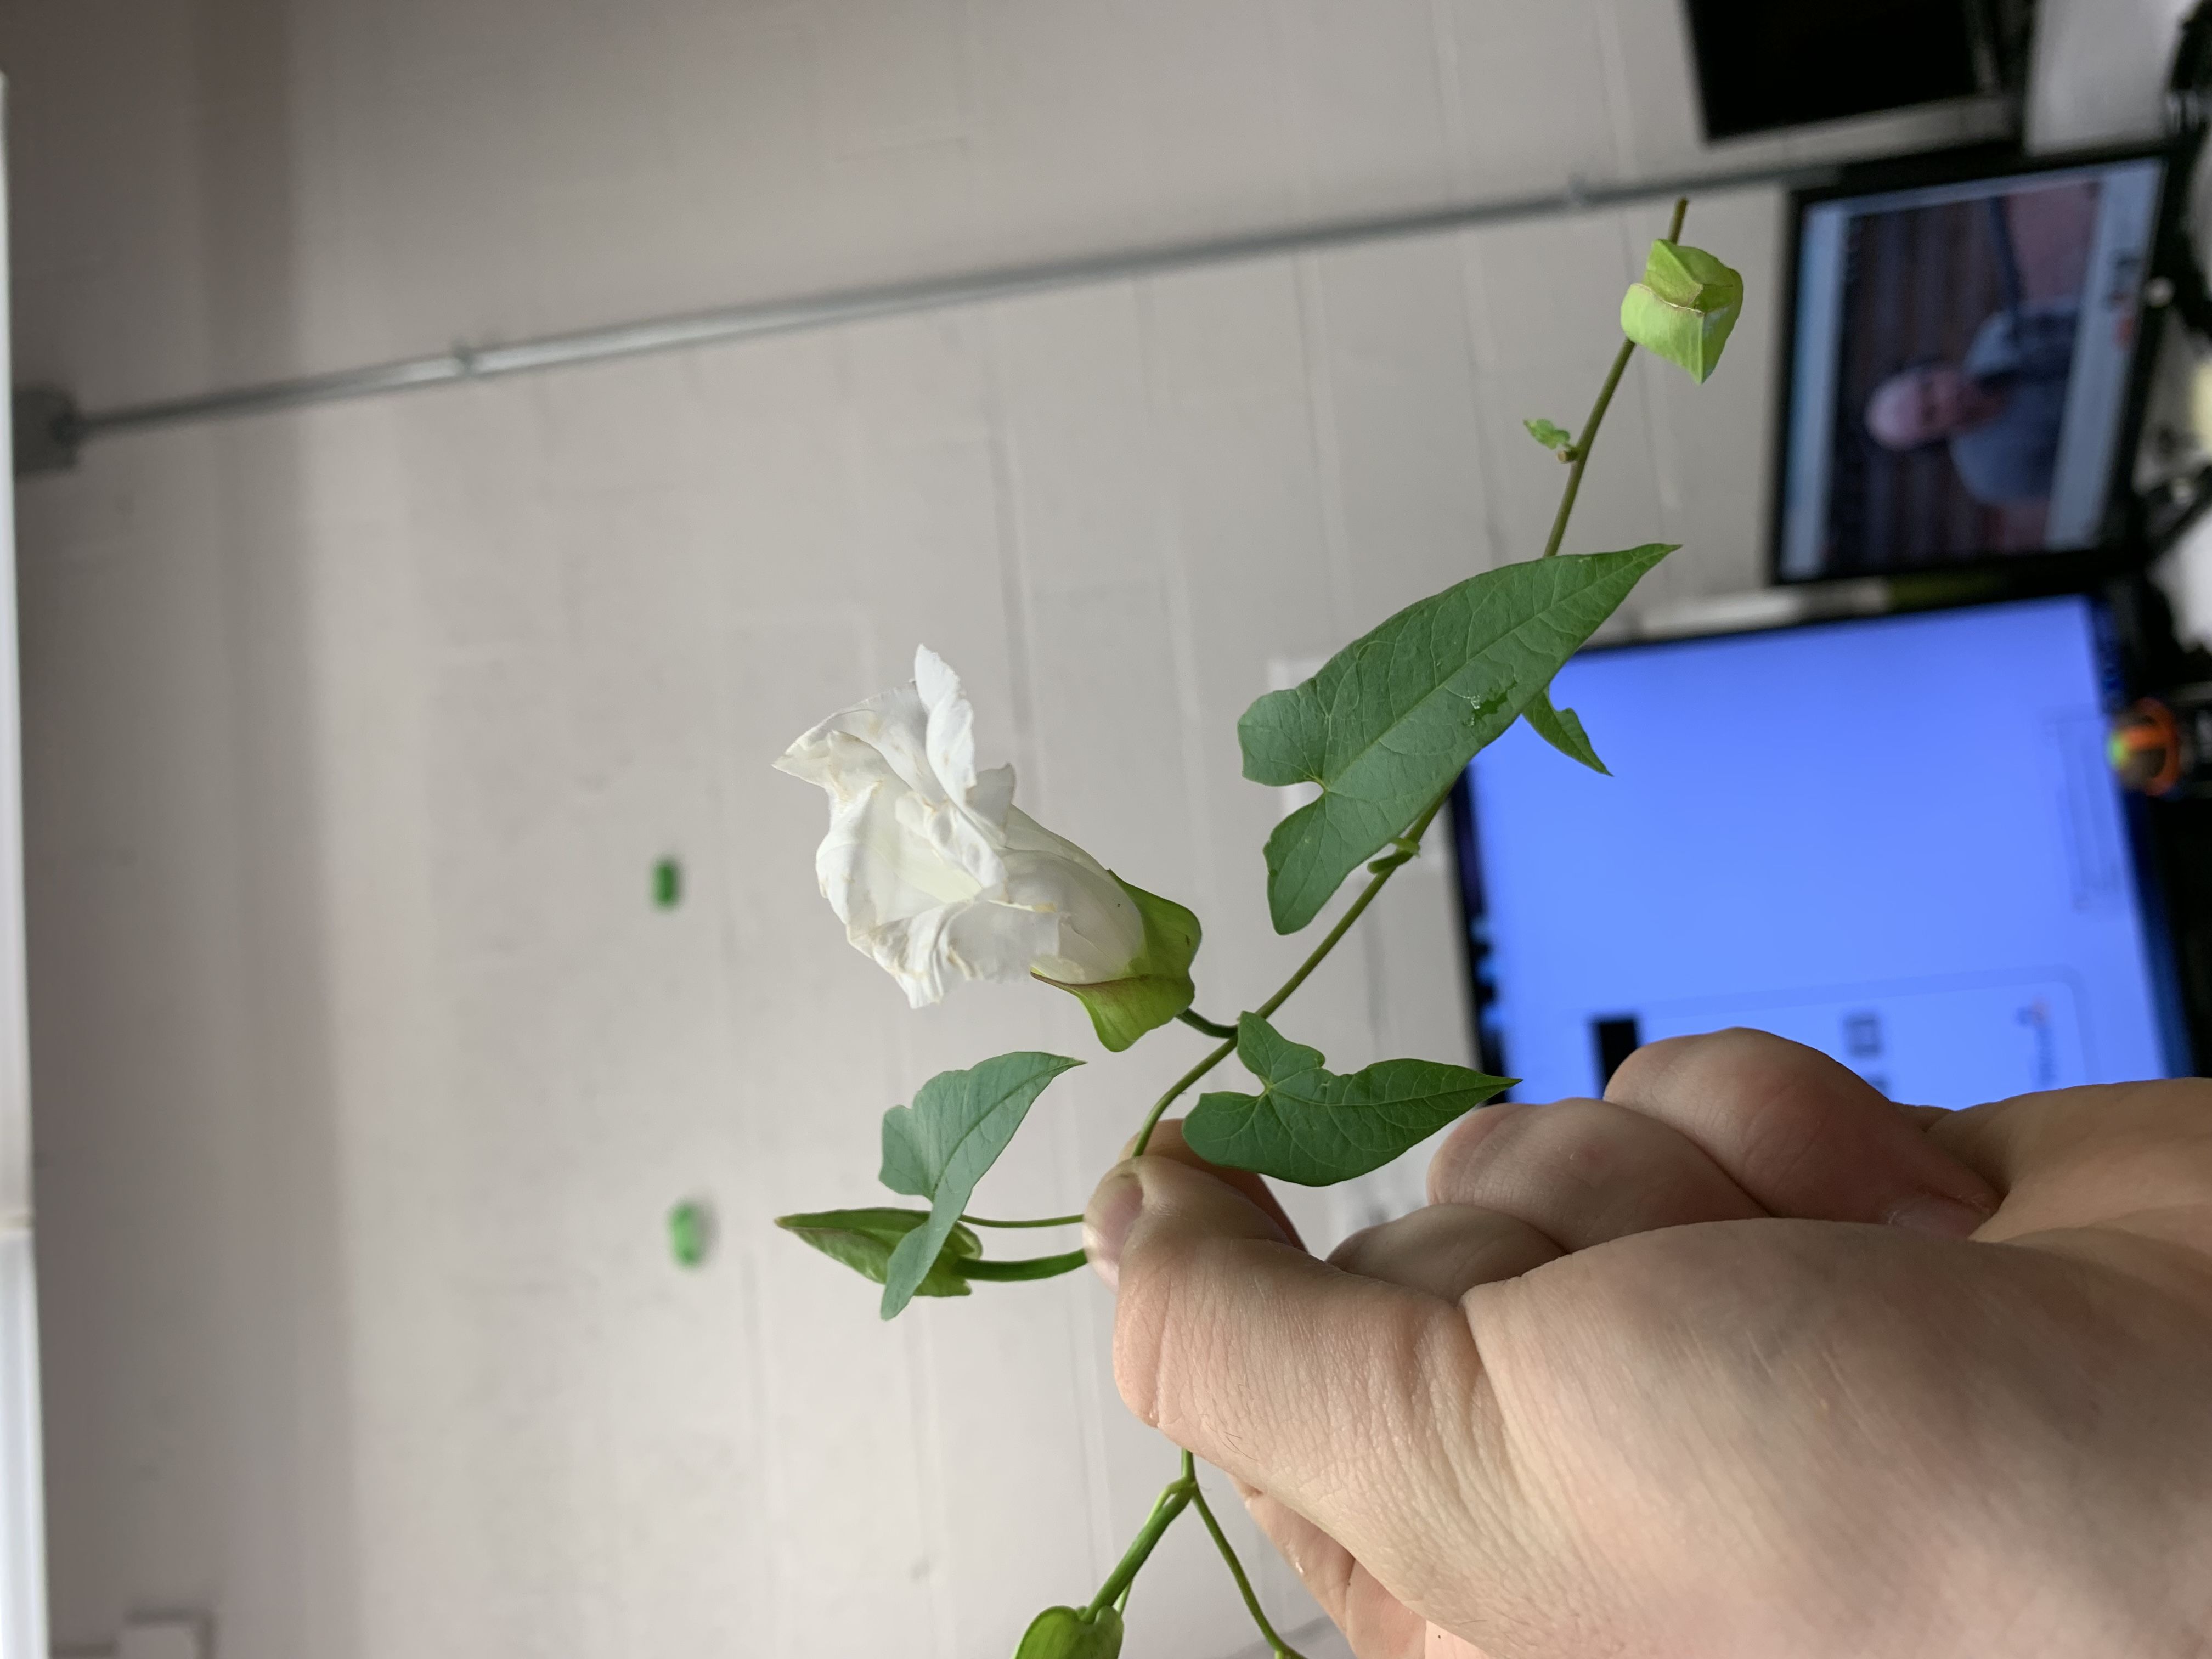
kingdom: Plantae
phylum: Tracheophyta
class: Magnoliopsida
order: Solanales
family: Convolvulaceae
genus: Calystegia
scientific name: Calystegia silvatica
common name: low bindweed
